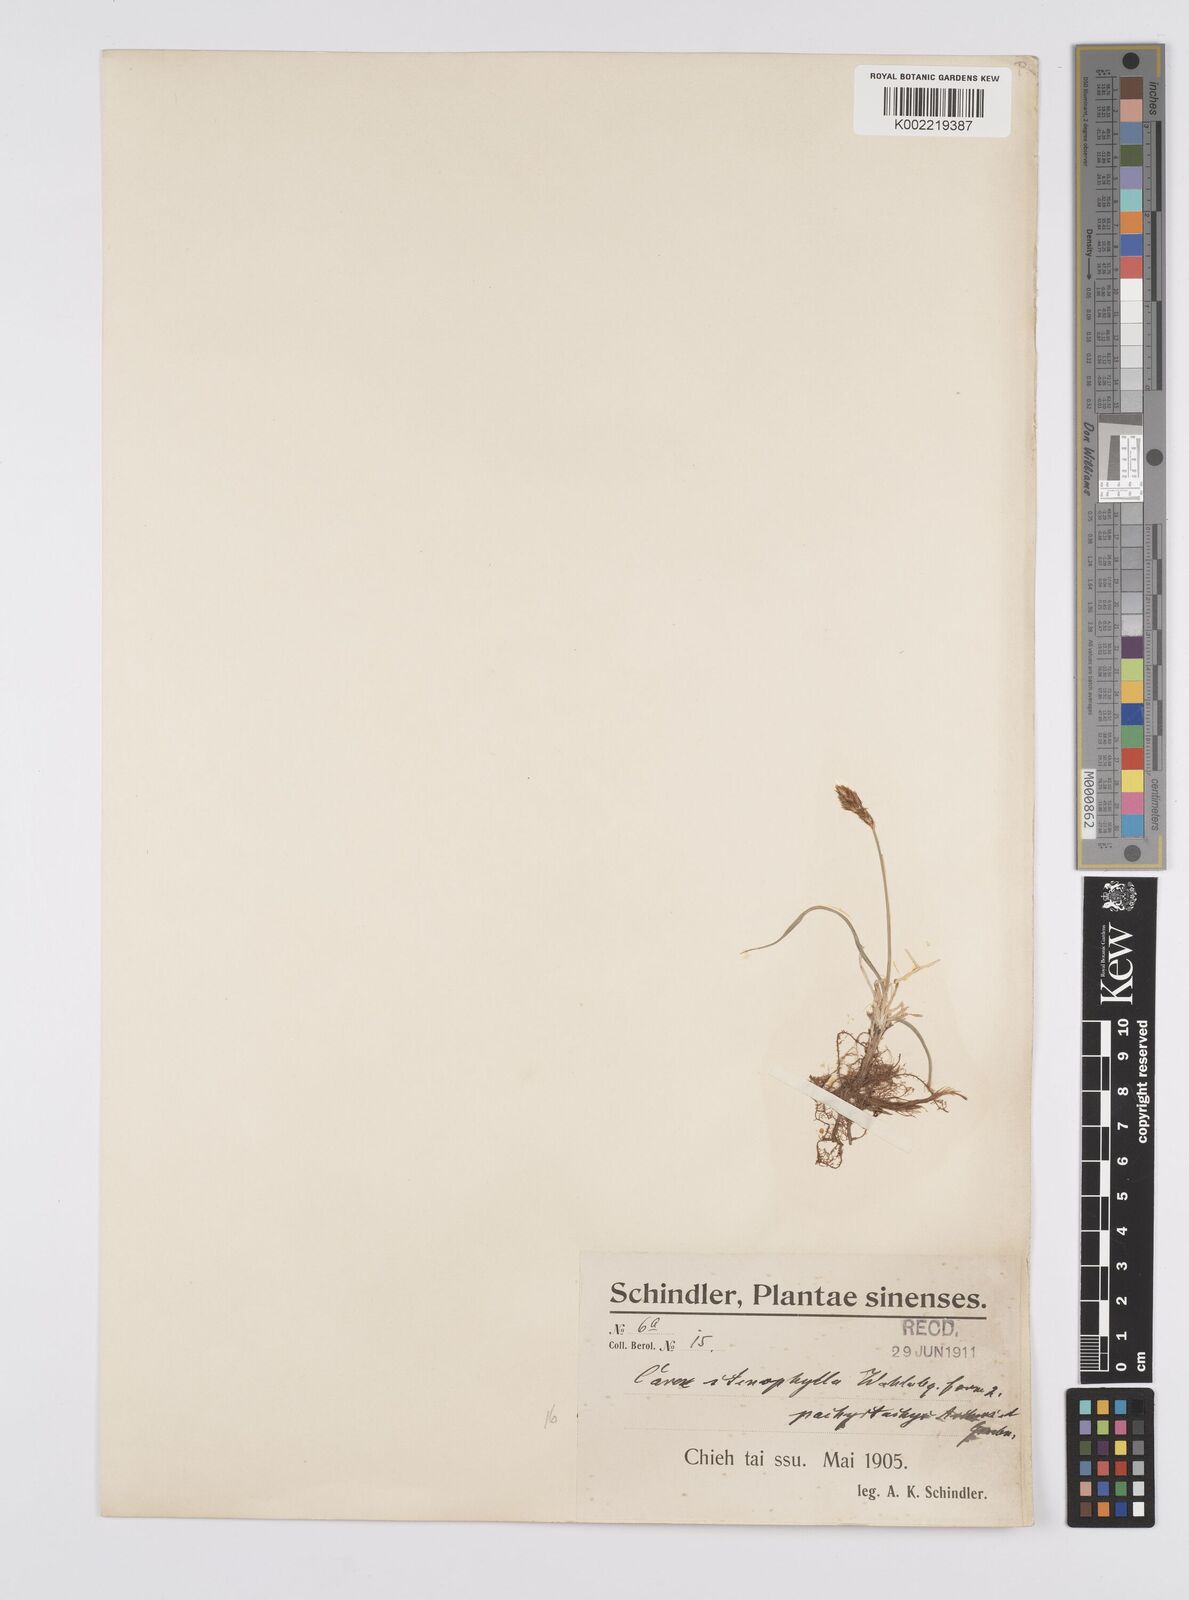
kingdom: Plantae
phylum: Tracheophyta
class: Liliopsida
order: Poales
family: Cyperaceae
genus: Carex
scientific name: Carex stenophylla
